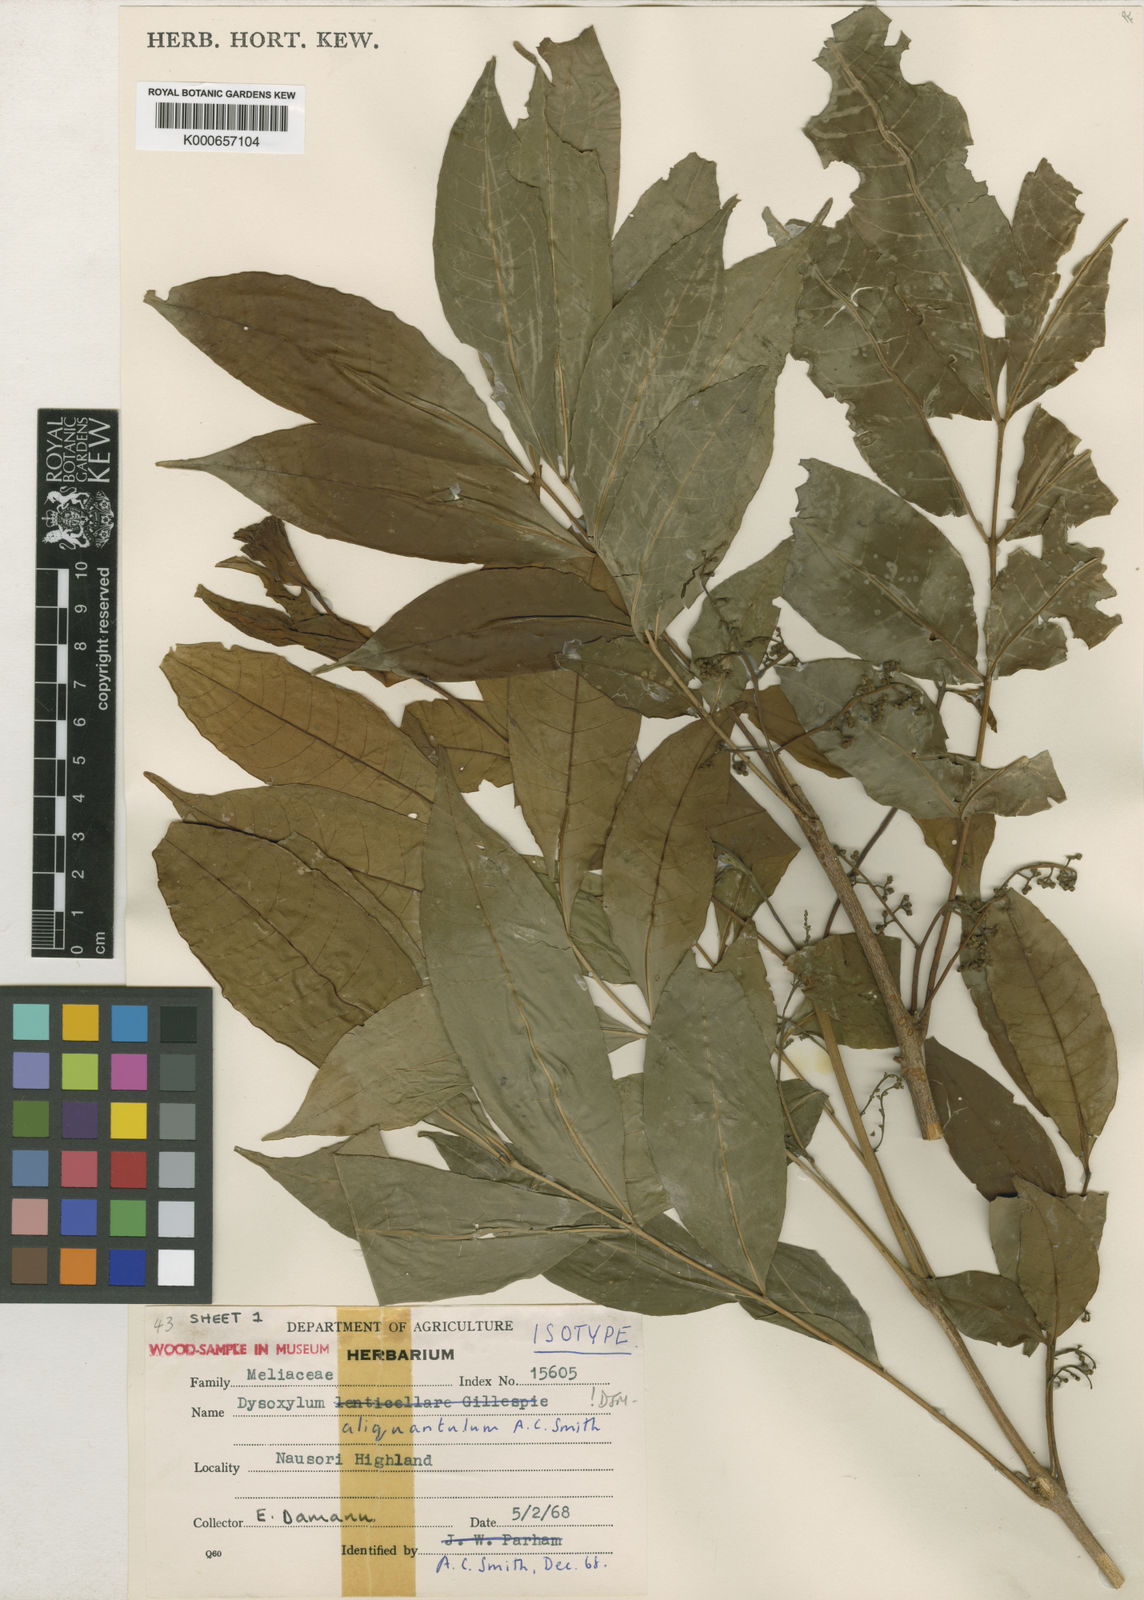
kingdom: Plantae
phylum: Tracheophyta
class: Magnoliopsida
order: Sapindales
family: Meliaceae
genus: Didymocheton
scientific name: Didymocheton aliquantulus
